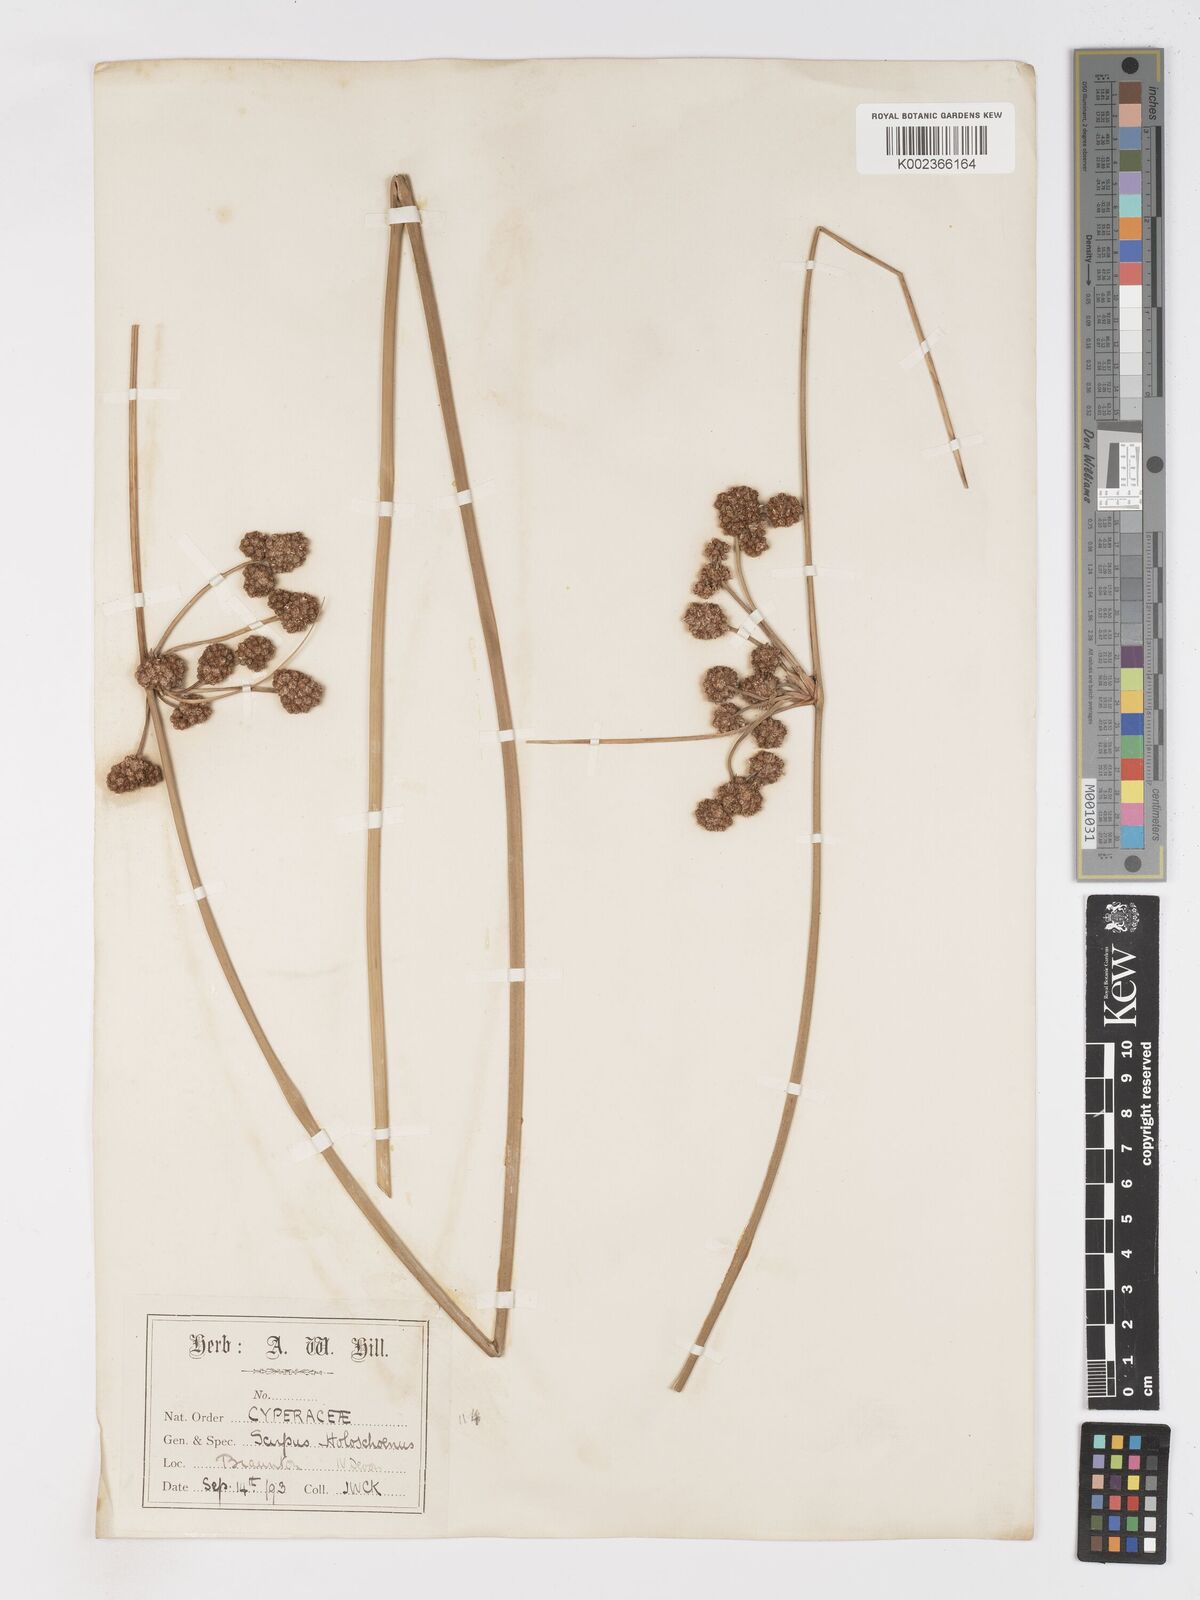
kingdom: Plantae
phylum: Tracheophyta
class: Liliopsida
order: Poales
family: Cyperaceae
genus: Scirpoides
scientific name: Scirpoides holoschoenus
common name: Round-headed club-rush
